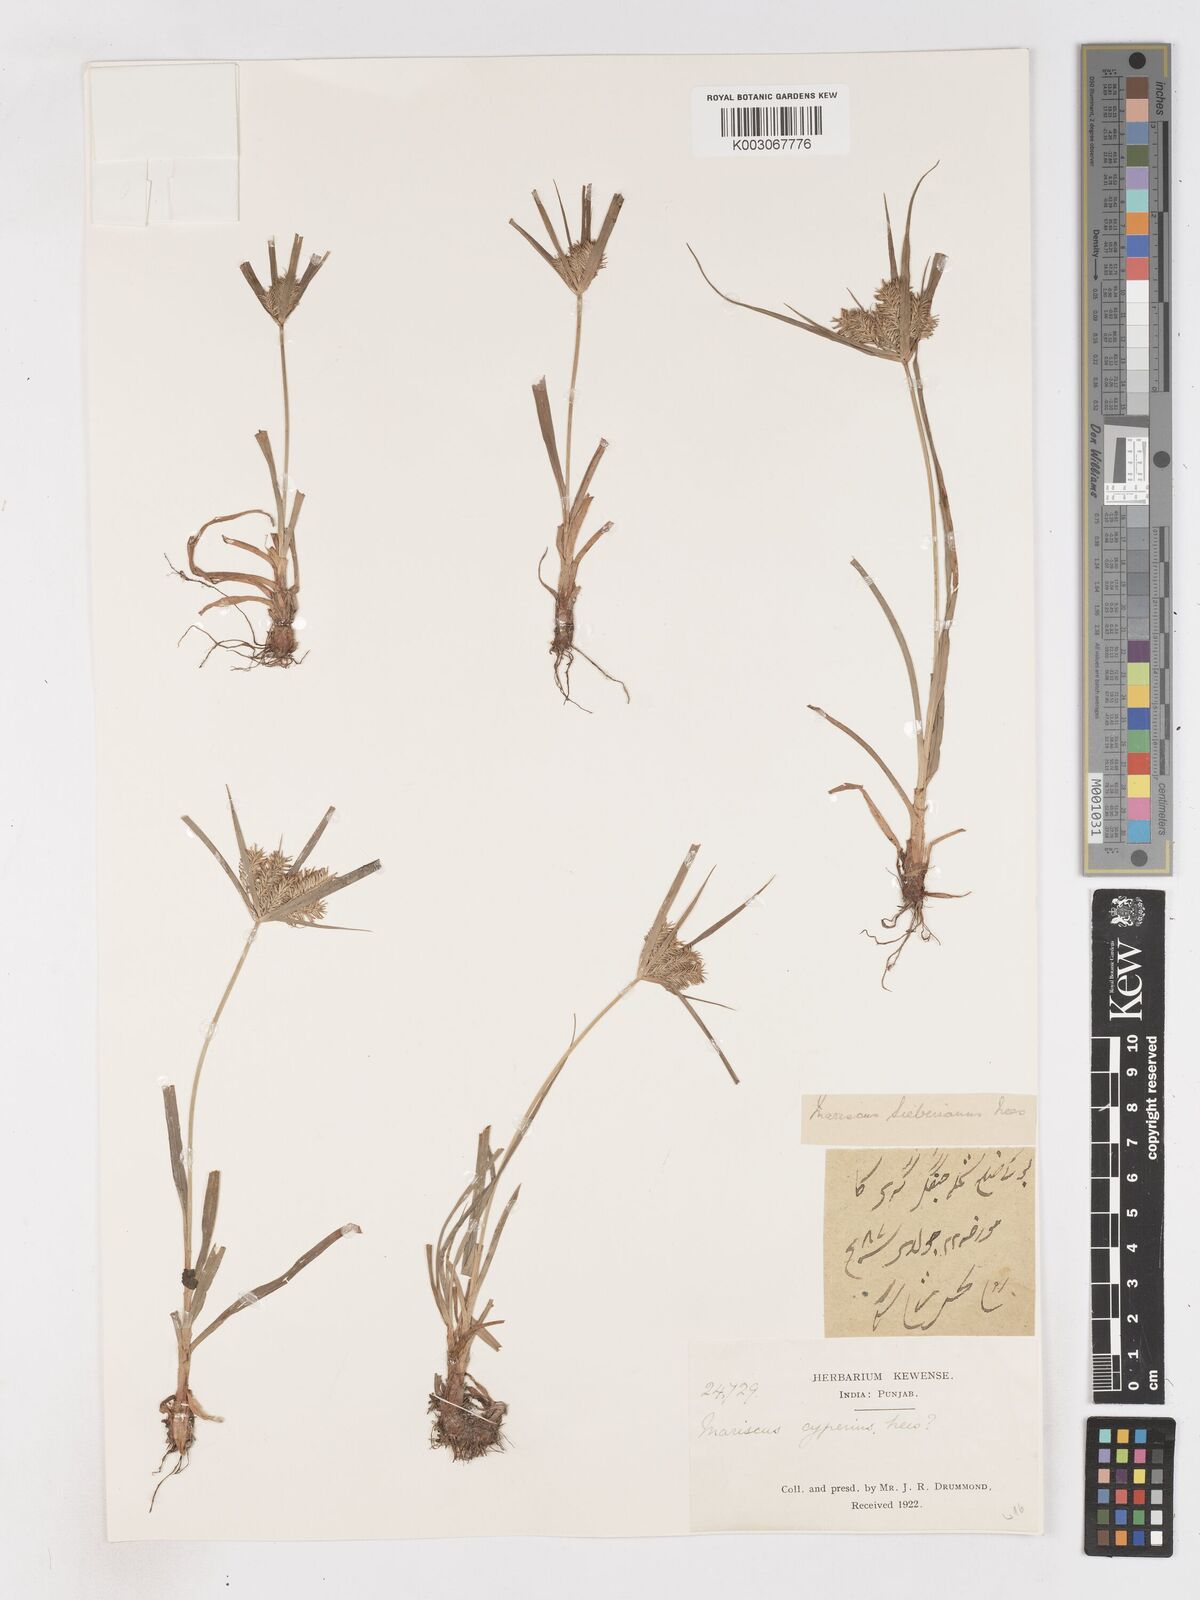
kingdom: Plantae
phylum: Tracheophyta
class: Liliopsida
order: Poales
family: Cyperaceae
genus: Cyperus
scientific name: Cyperus cyperoides
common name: Pacific island flat sedge
